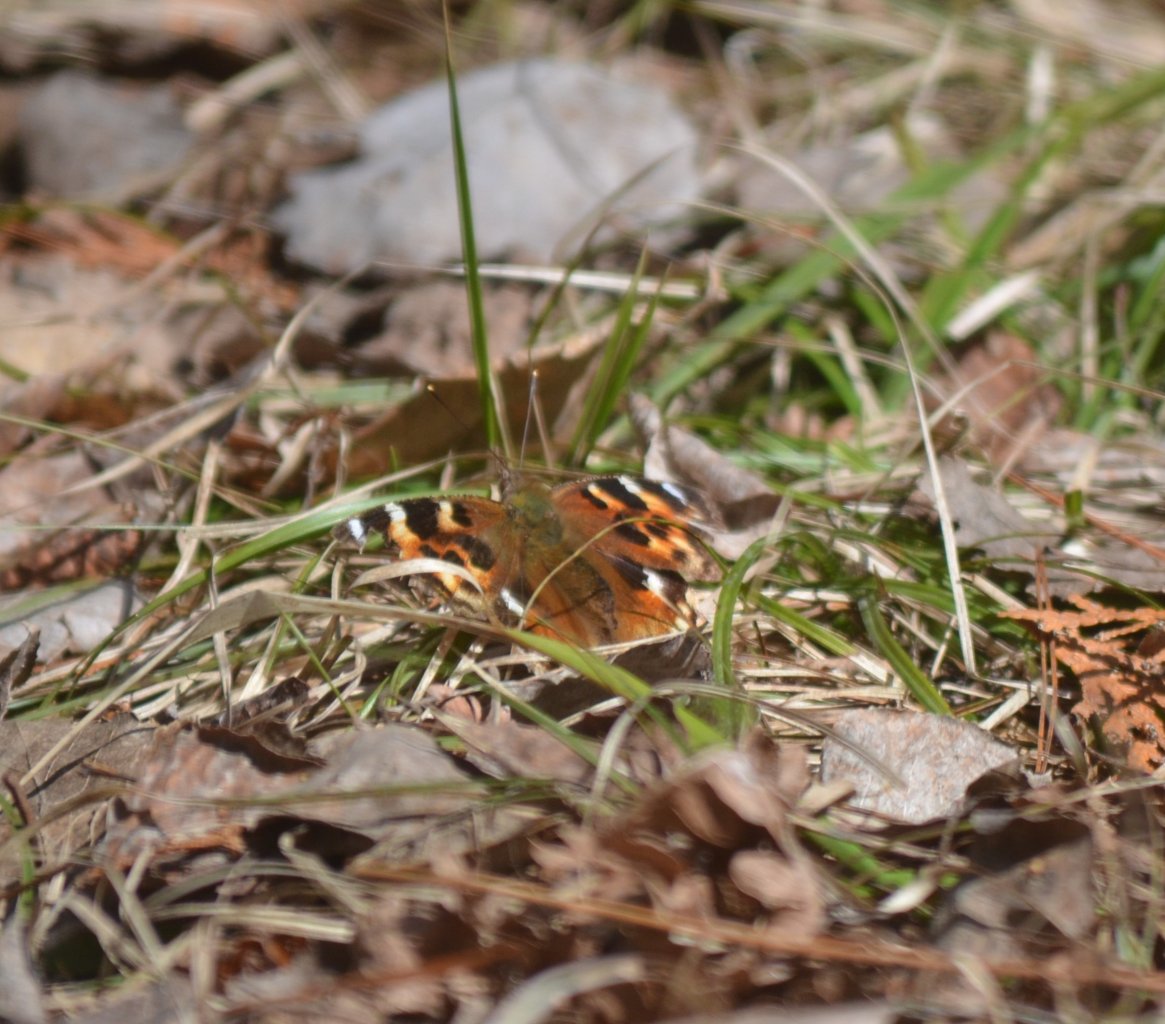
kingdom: Animalia
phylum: Arthropoda
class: Insecta
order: Lepidoptera
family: Nymphalidae
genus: Polygonia
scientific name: Polygonia vaualbum
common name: Compton Tortoiseshell
